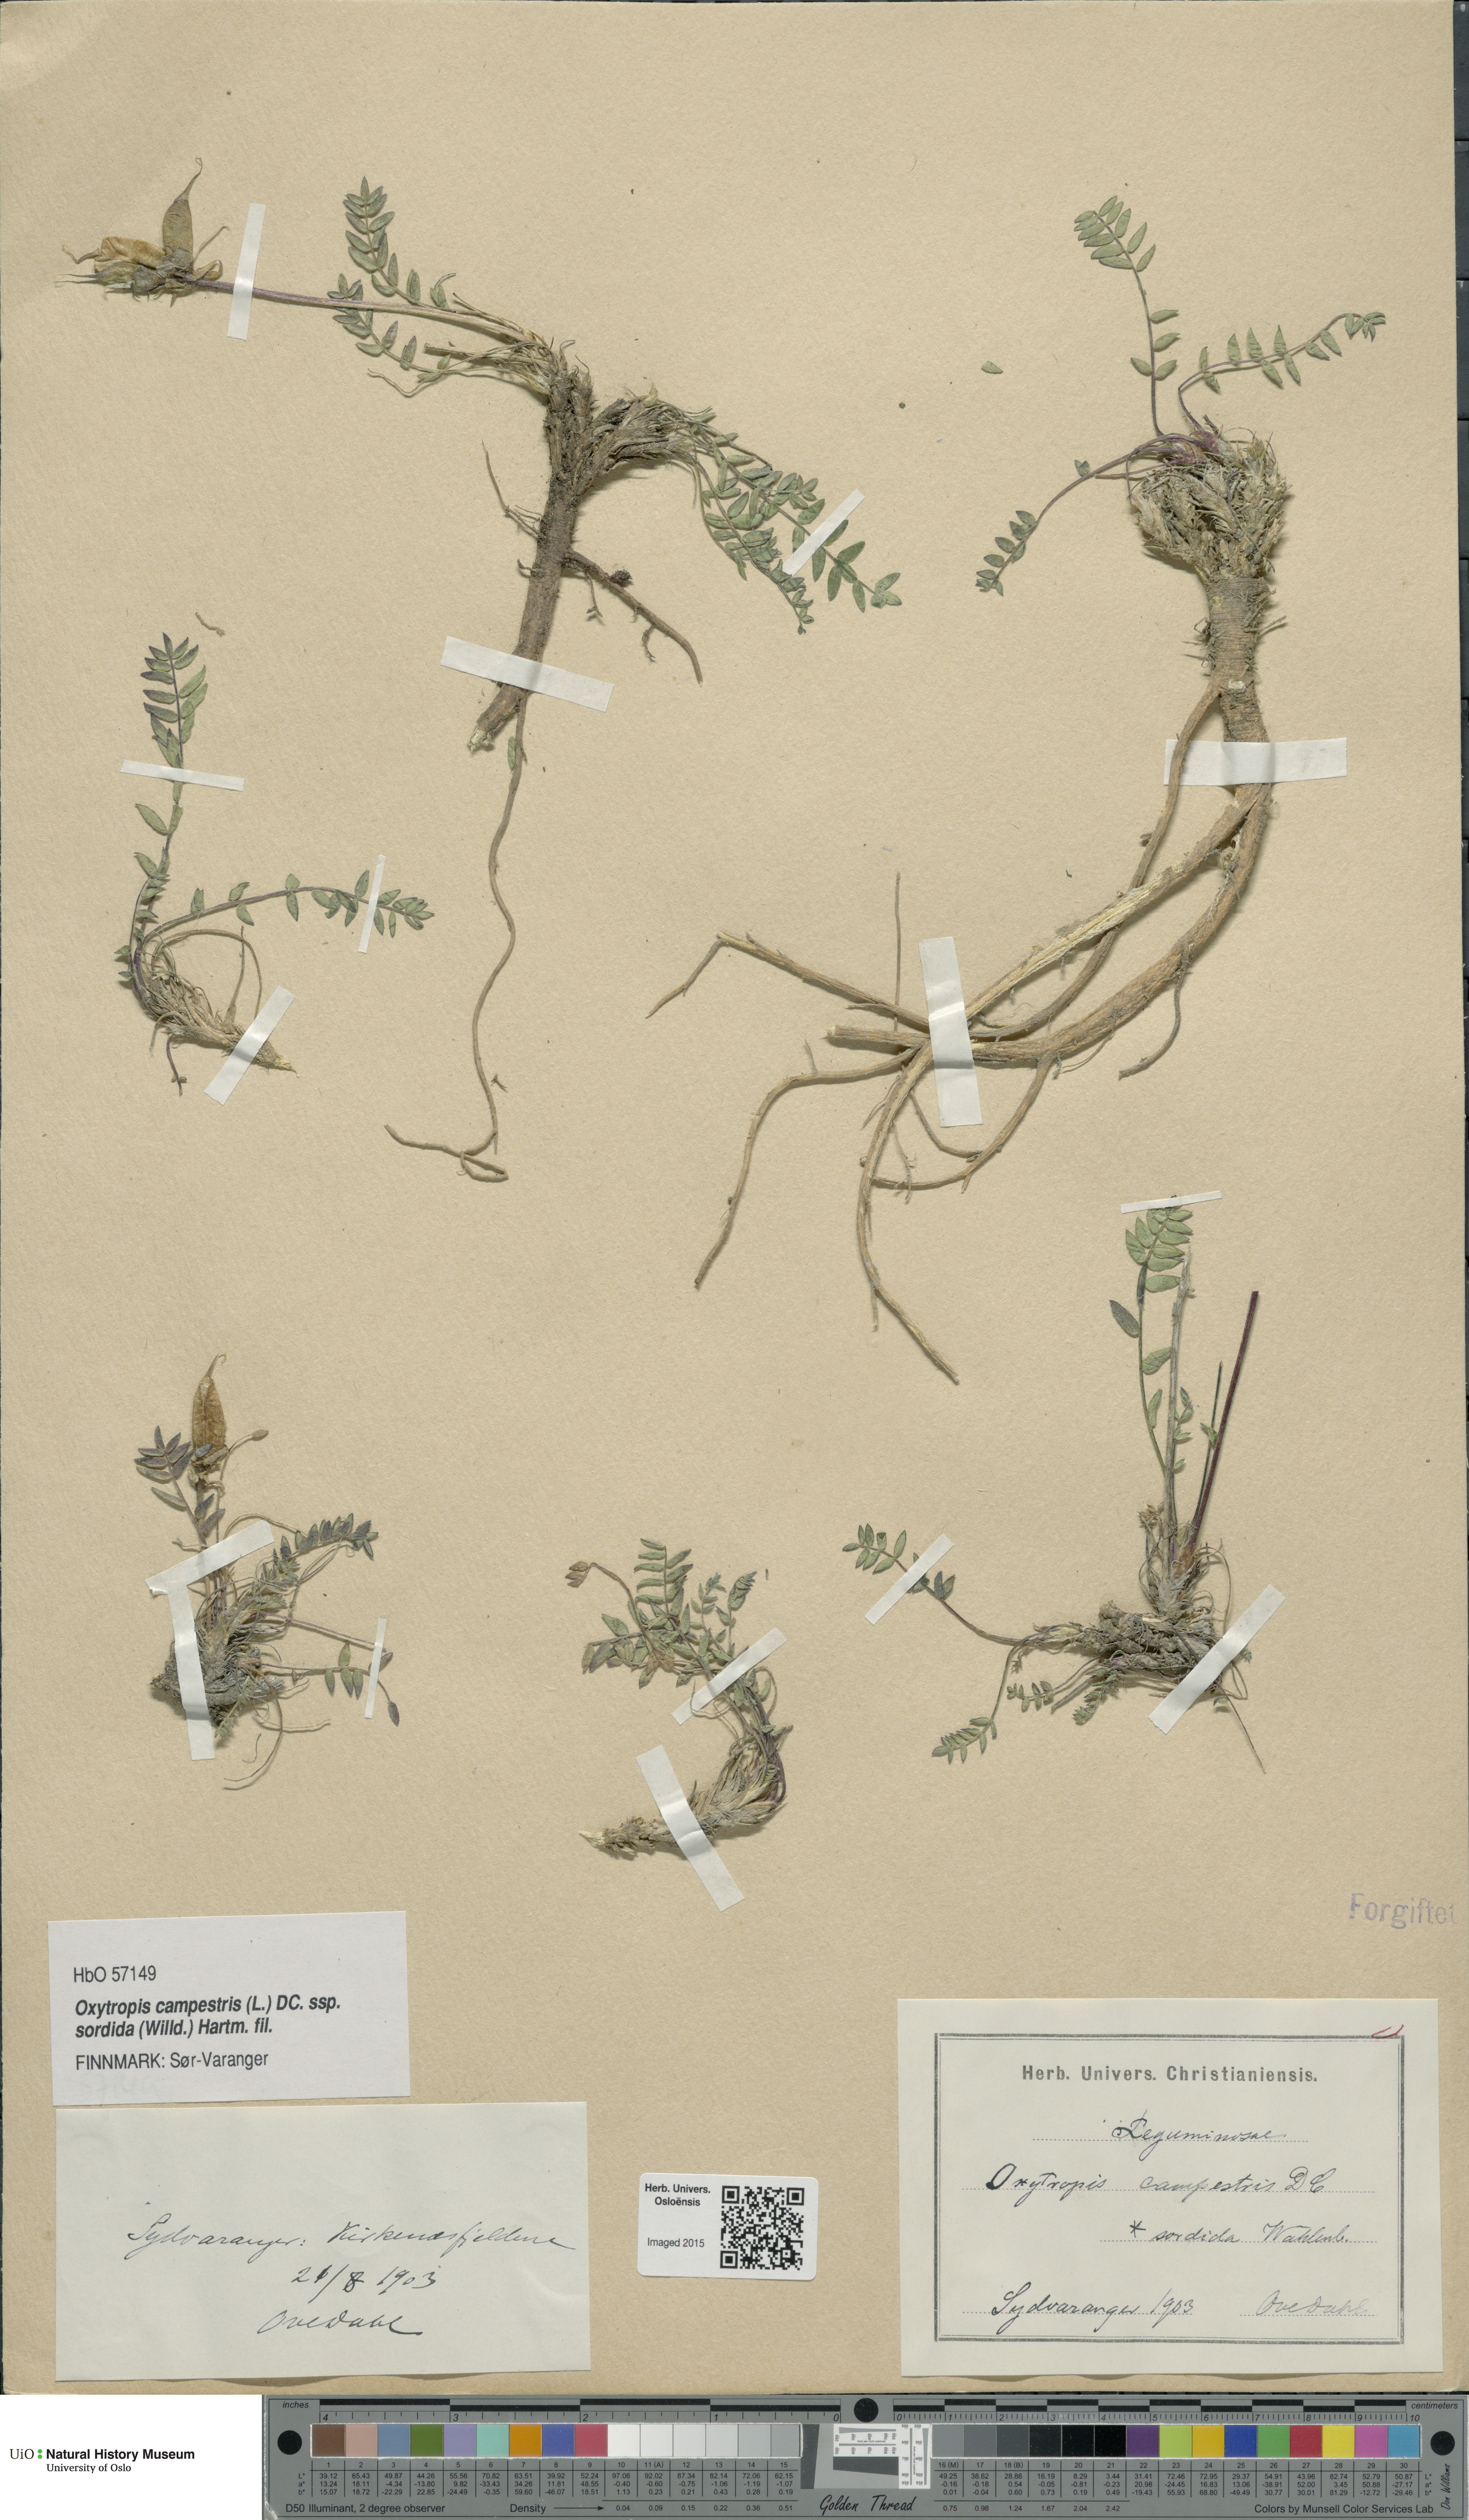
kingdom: Plantae
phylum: Tracheophyta
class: Magnoliopsida
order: Fabales
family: Fabaceae
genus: Oxytropis
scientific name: Oxytropis sordida
